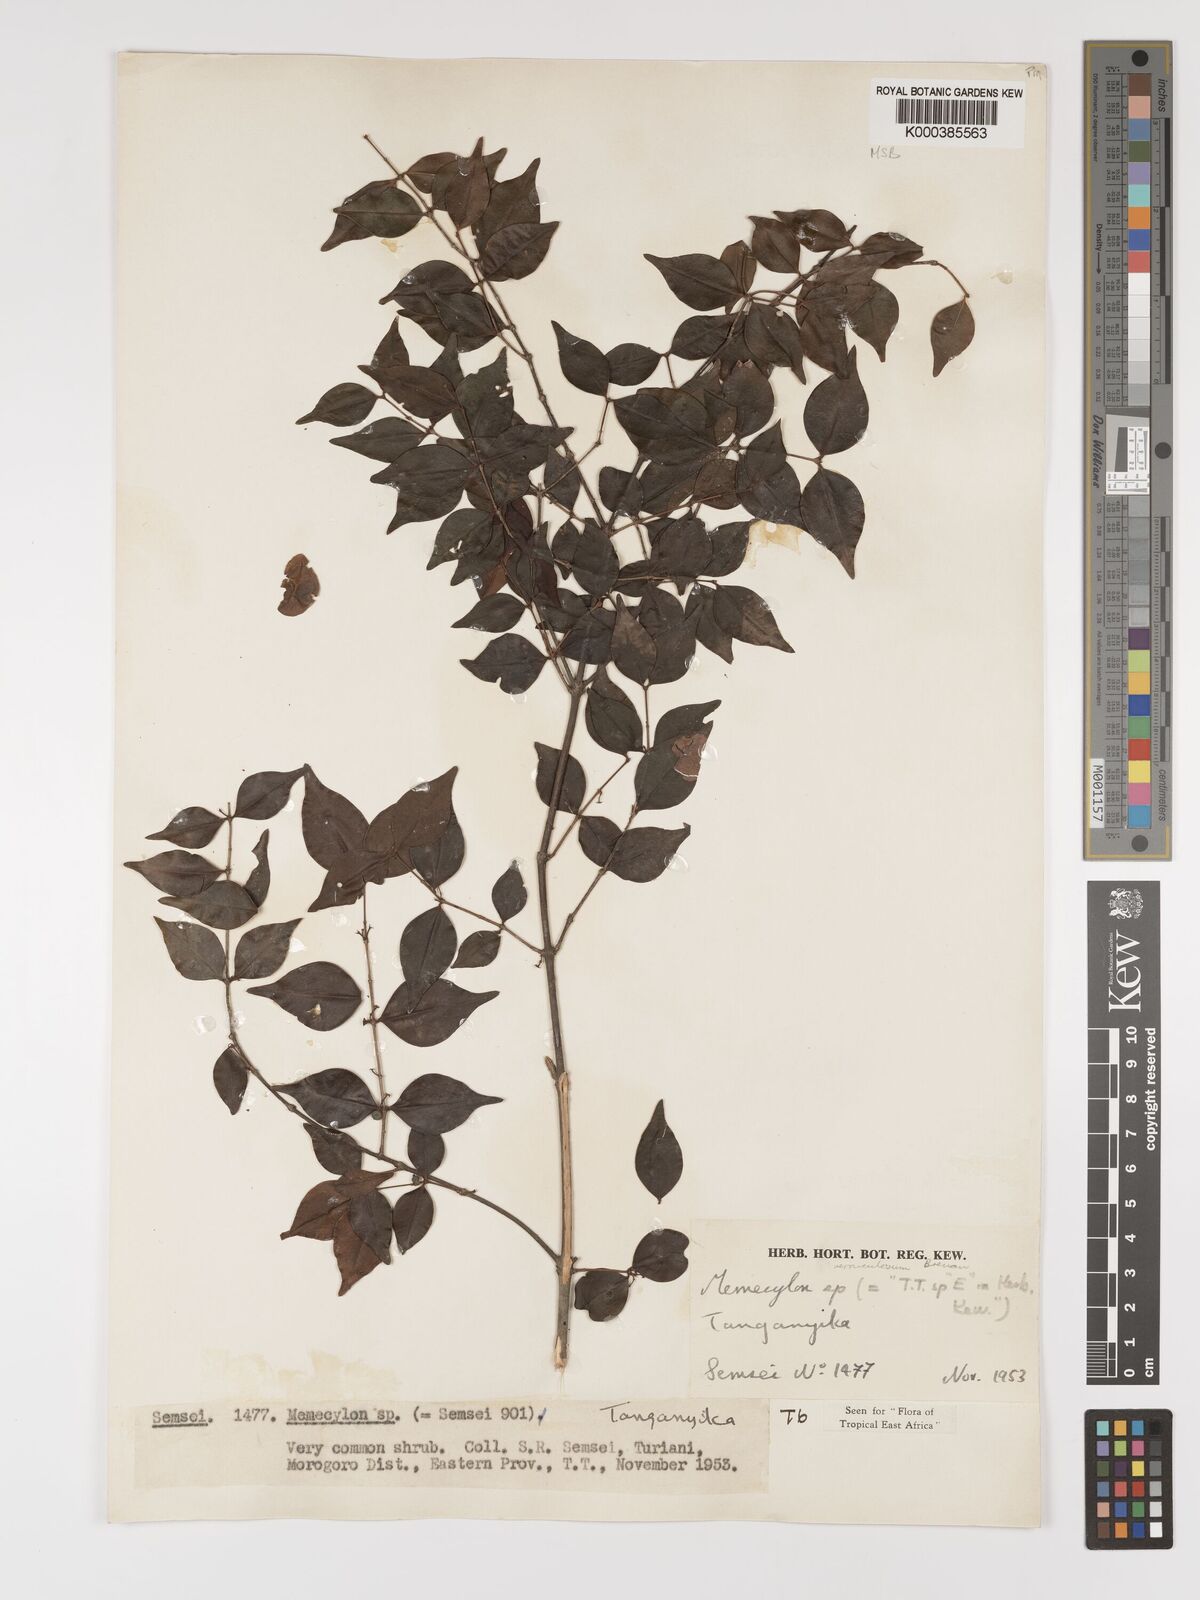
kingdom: Plantae
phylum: Tracheophyta
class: Magnoliopsida
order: Myrtales
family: Melastomataceae
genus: Memecylon
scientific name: Memecylon verruculosum
